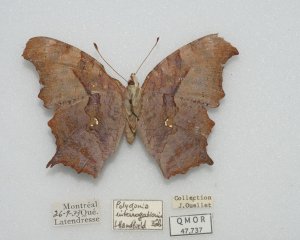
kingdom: Animalia
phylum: Arthropoda
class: Insecta
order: Lepidoptera
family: Nymphalidae
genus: Polygonia
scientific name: Polygonia interrogationis
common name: Question Mark
